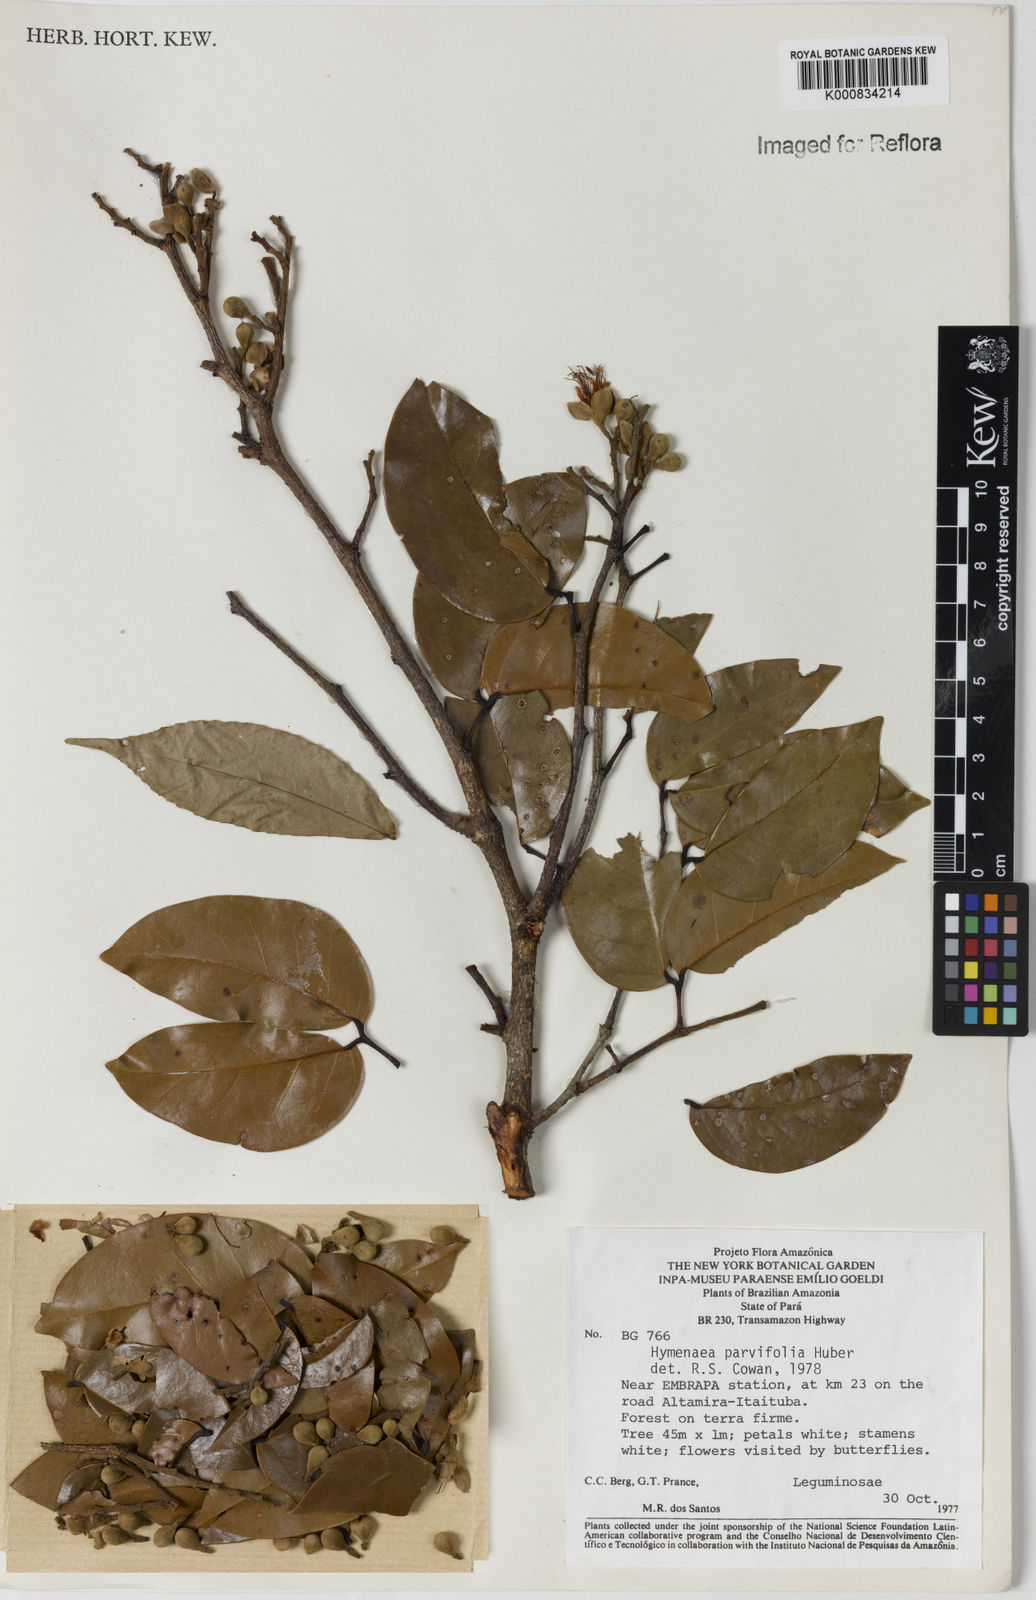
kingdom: Plantae
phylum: Tracheophyta
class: Magnoliopsida
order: Fabales
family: Fabaceae
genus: Hymenaea
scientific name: Hymenaea parvifolia
